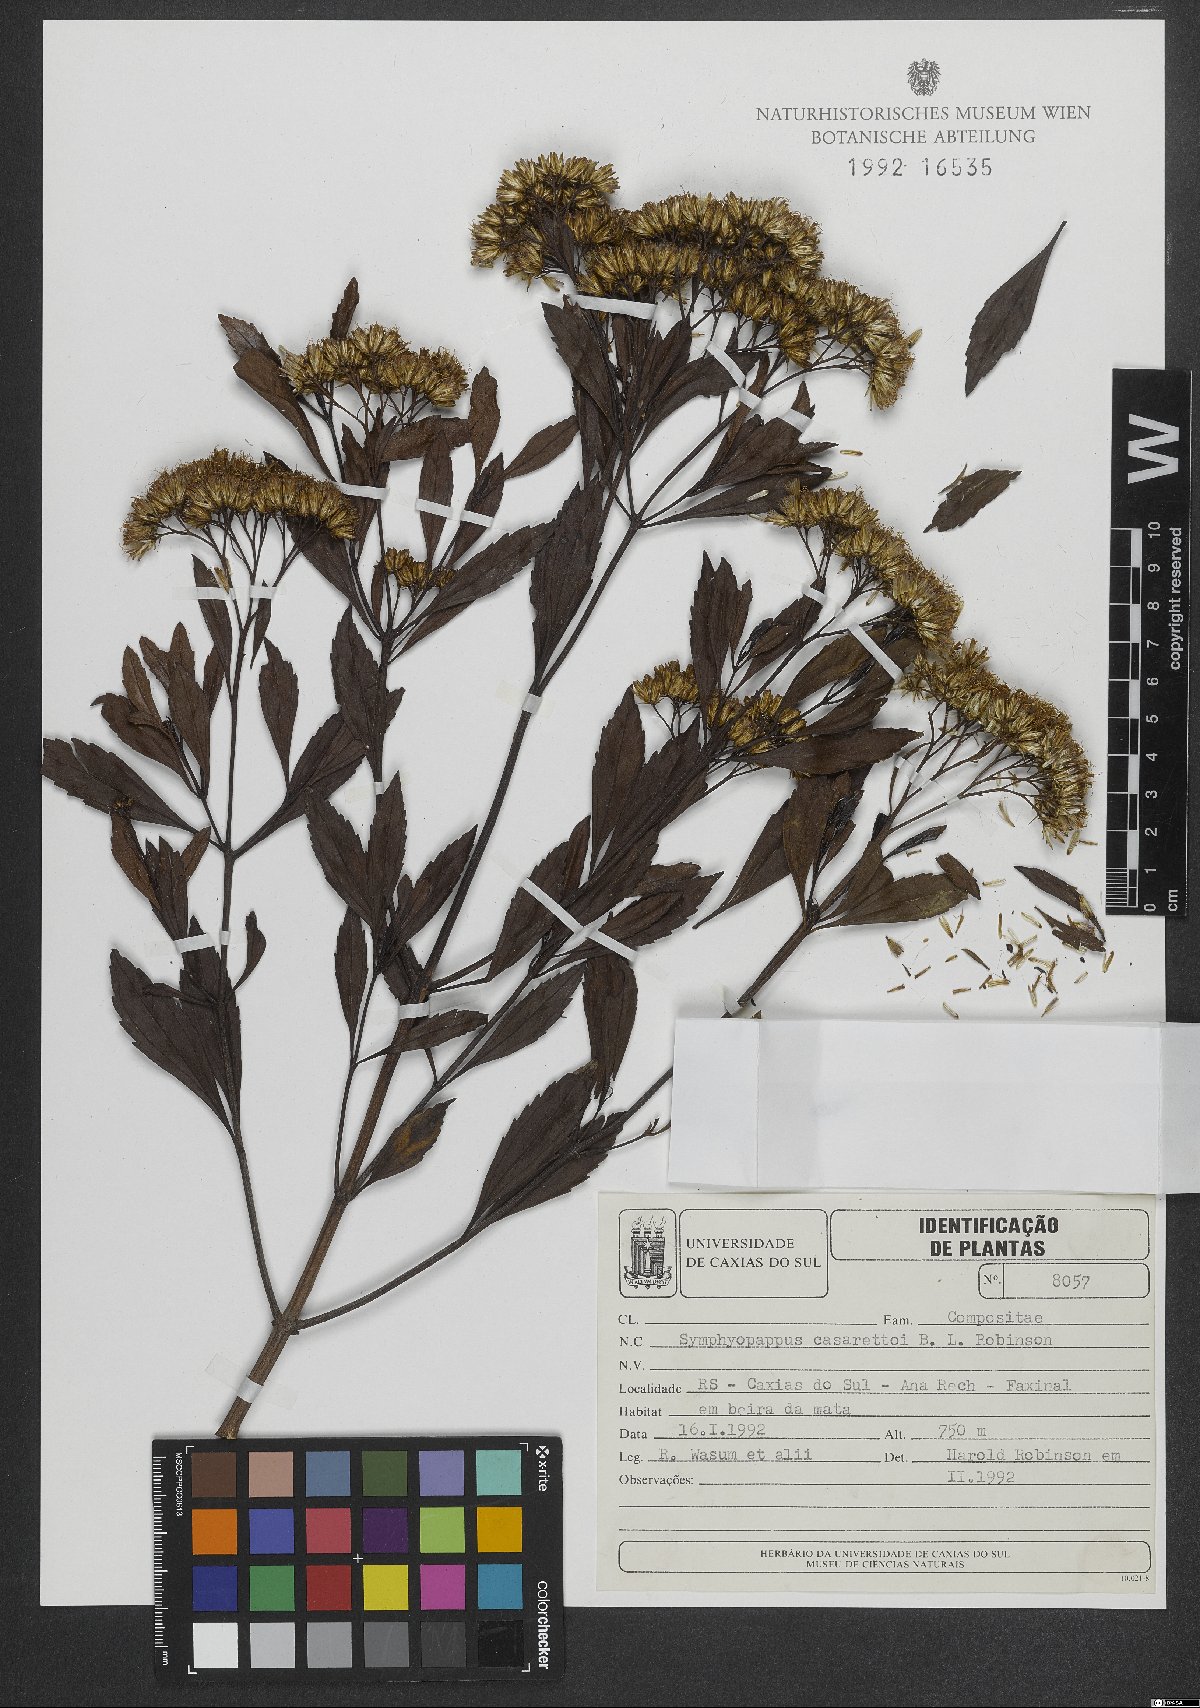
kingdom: Plantae
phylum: Tracheophyta
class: Magnoliopsida
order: Asterales
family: Asteraceae
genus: Symphyopappus
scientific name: Symphyopappus casarettoi
